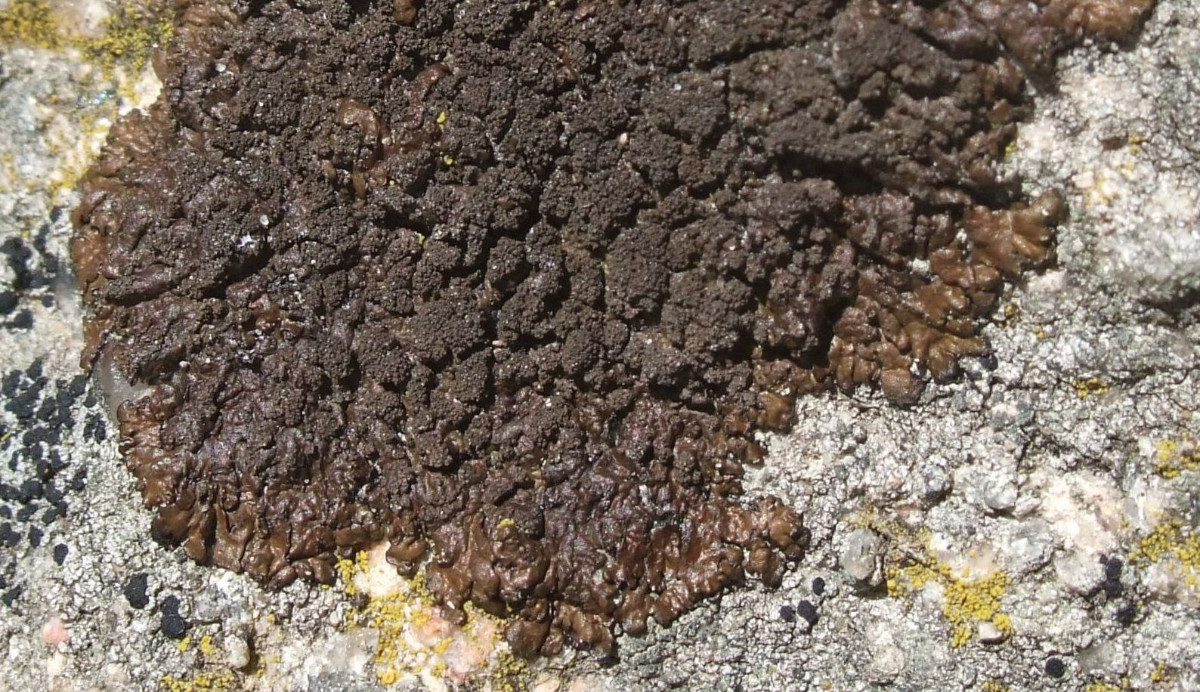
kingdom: Fungi
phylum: Ascomycota
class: Lecanoromycetes
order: Lecanorales
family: Parmeliaceae
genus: Xanthoparmelia
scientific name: Xanthoparmelia verruculifera
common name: småknoppet skållav
